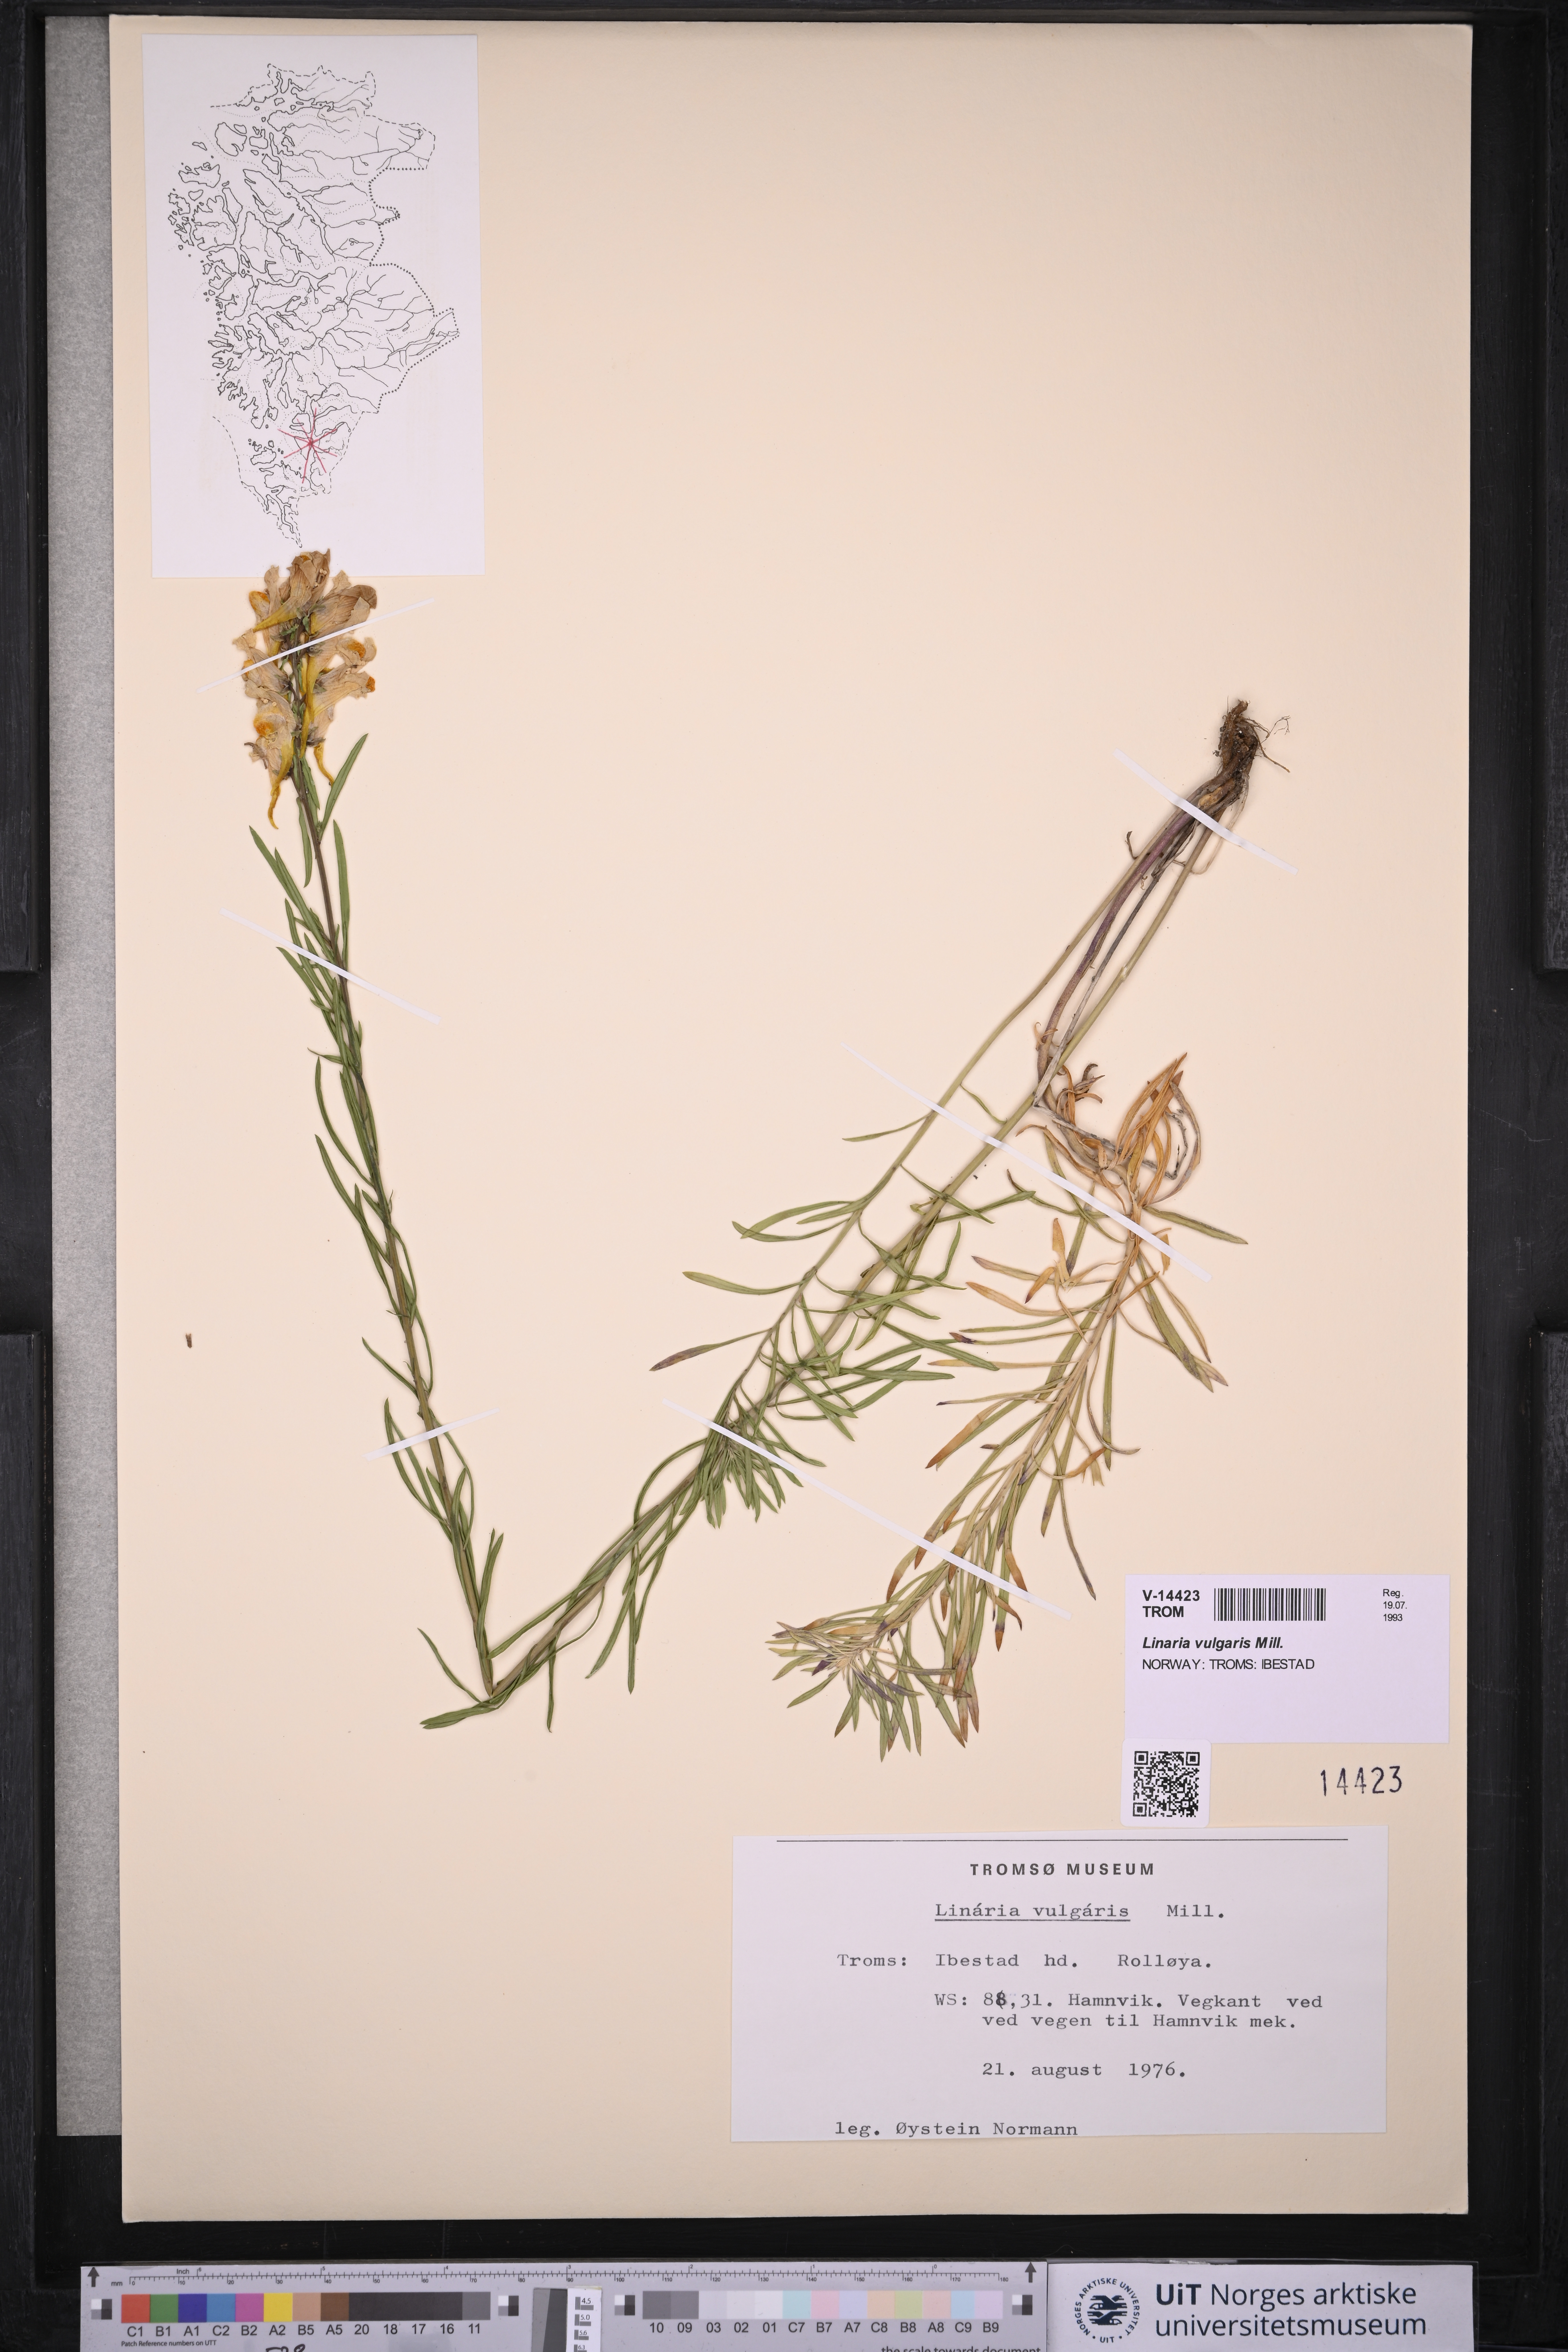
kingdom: Plantae
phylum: Tracheophyta
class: Magnoliopsida
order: Lamiales
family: Plantaginaceae
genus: Linaria
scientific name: Linaria vulgaris
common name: Butter and eggs
